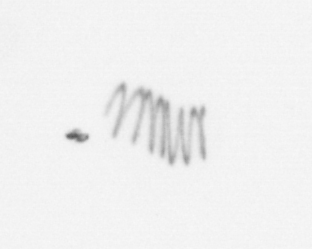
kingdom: Chromista
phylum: Ochrophyta
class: Bacillariophyceae
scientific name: Bacillariophyceae
